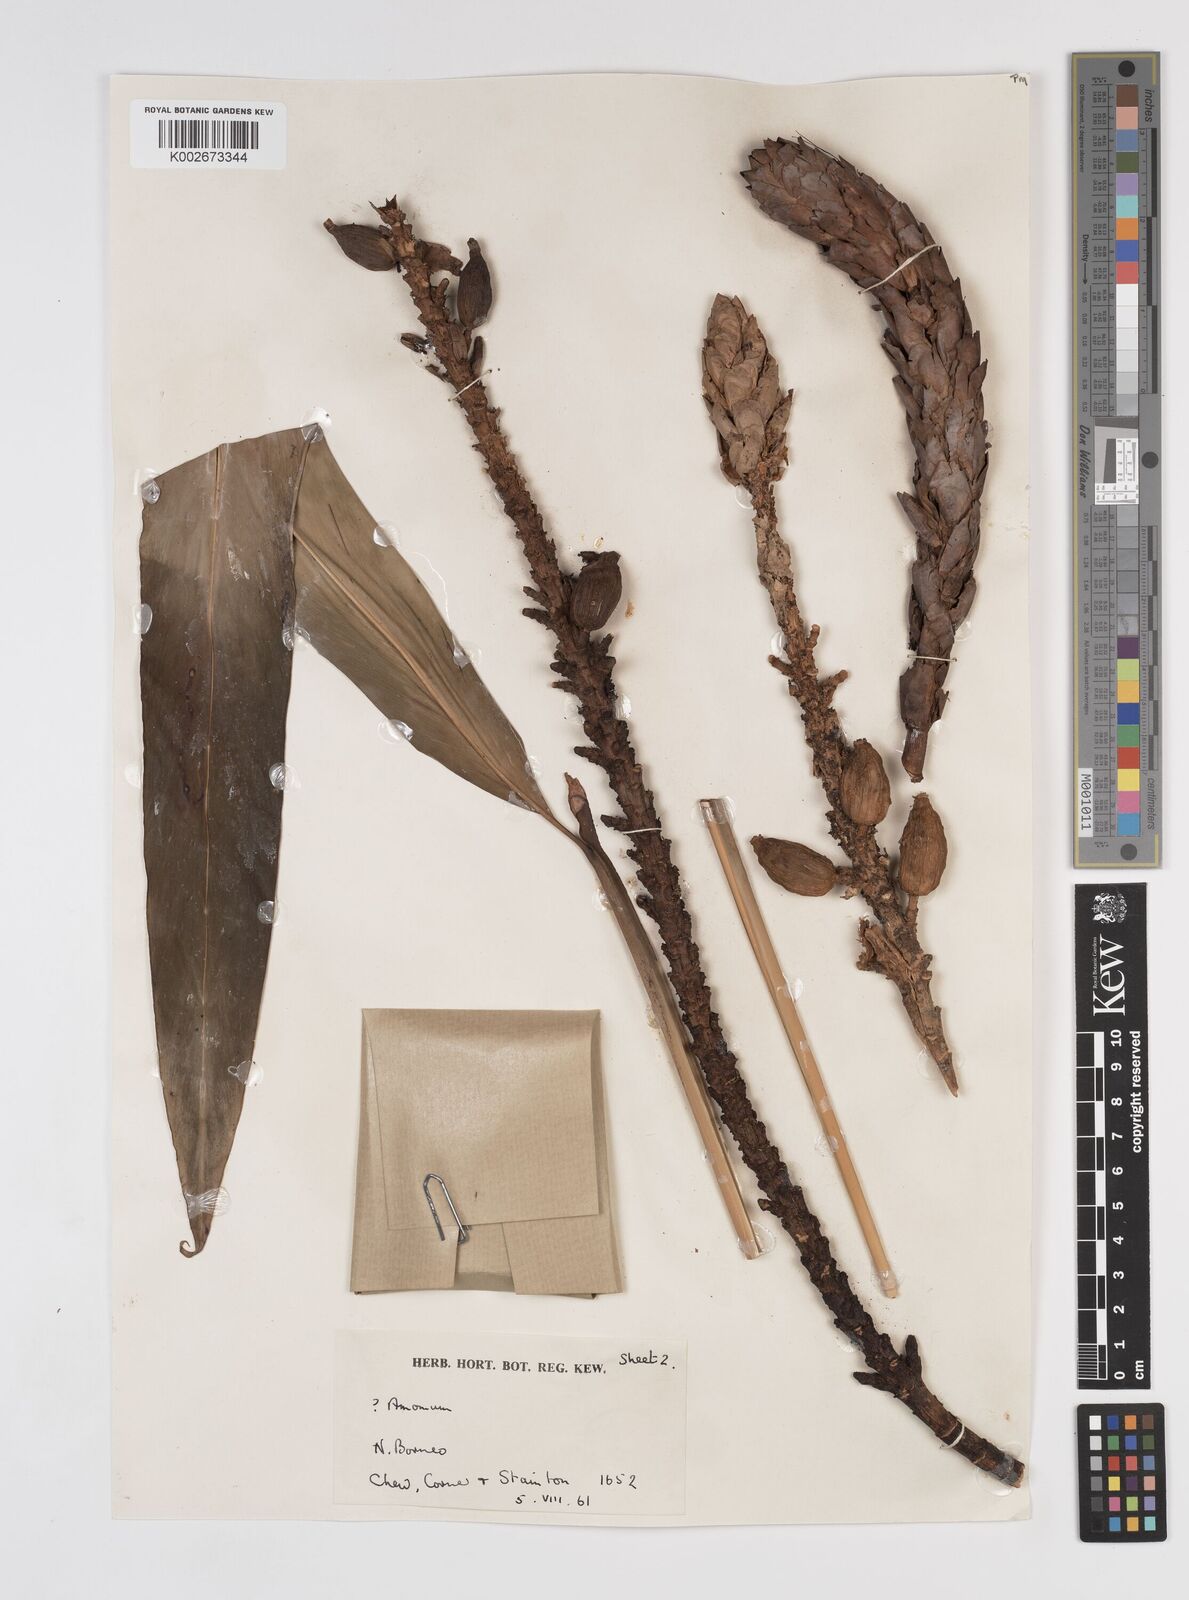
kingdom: Plantae
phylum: Tracheophyta
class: Liliopsida
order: Zingiberales
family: Zingiberaceae
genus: Sulettaria
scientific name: Sulettaria anomala
